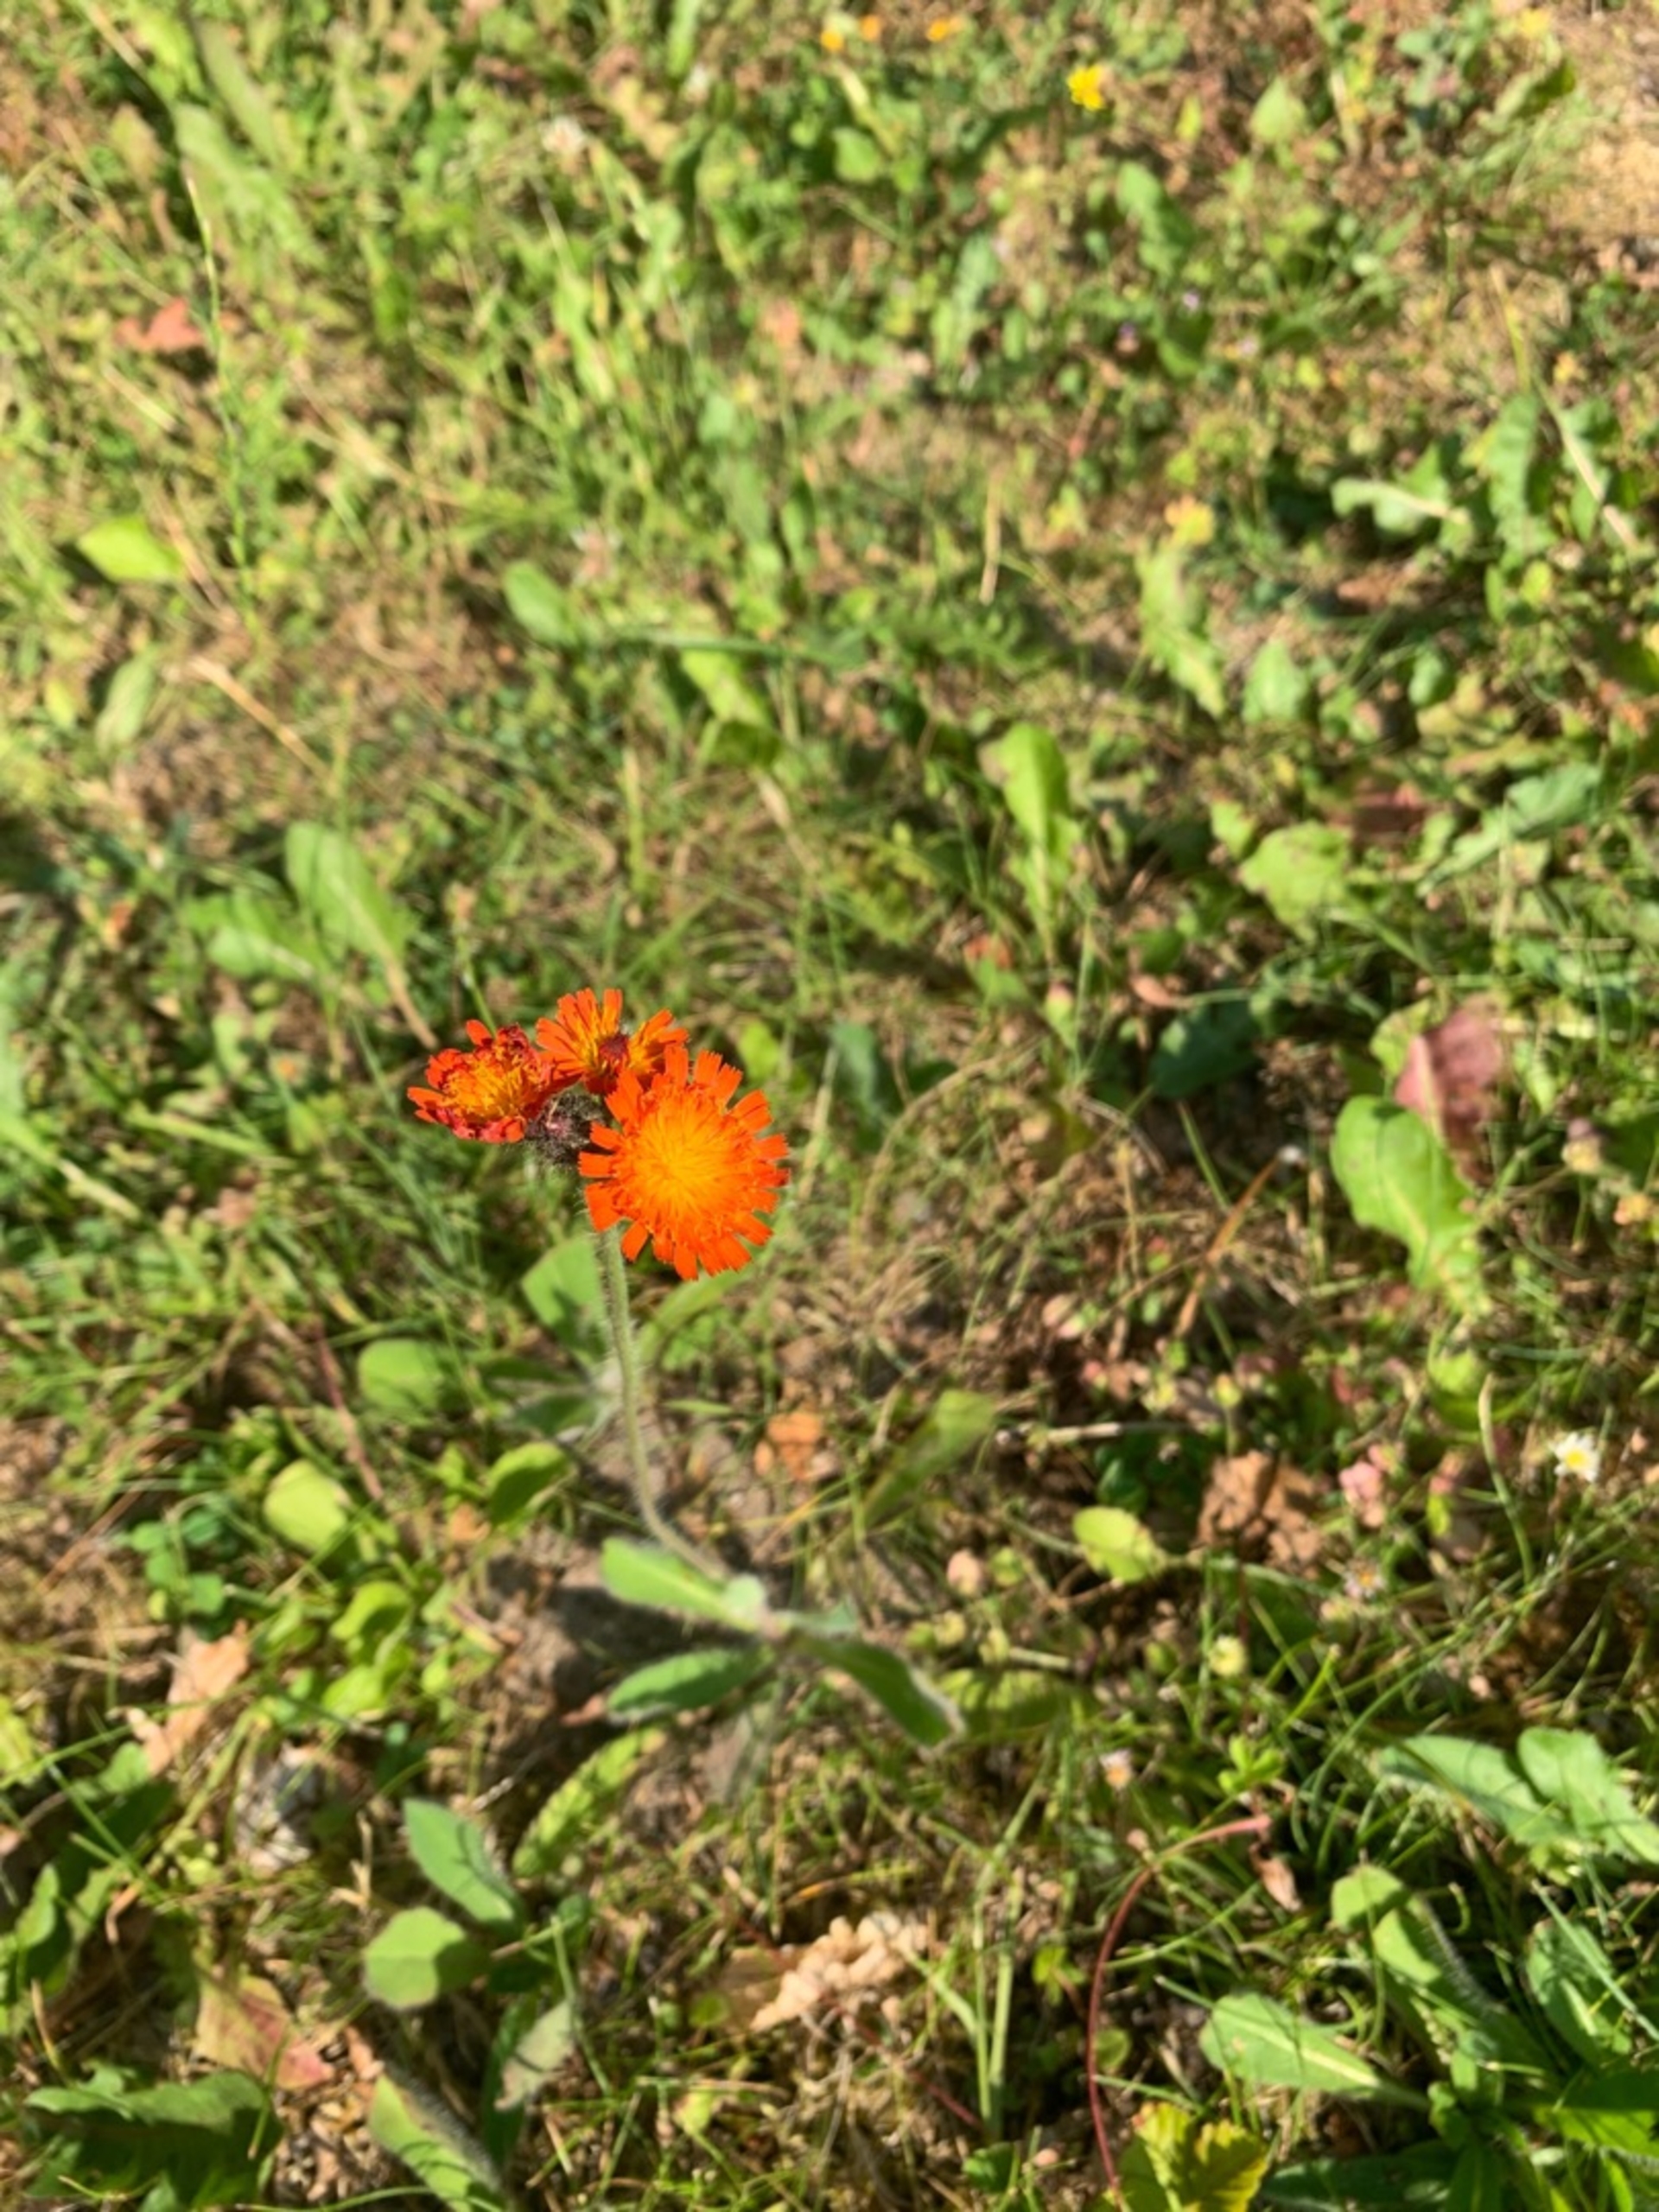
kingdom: Plantae
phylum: Tracheophyta
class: Magnoliopsida
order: Asterales
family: Asteraceae
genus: Pilosella
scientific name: Pilosella aurantiaca
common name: Pomerans-høgeurt
